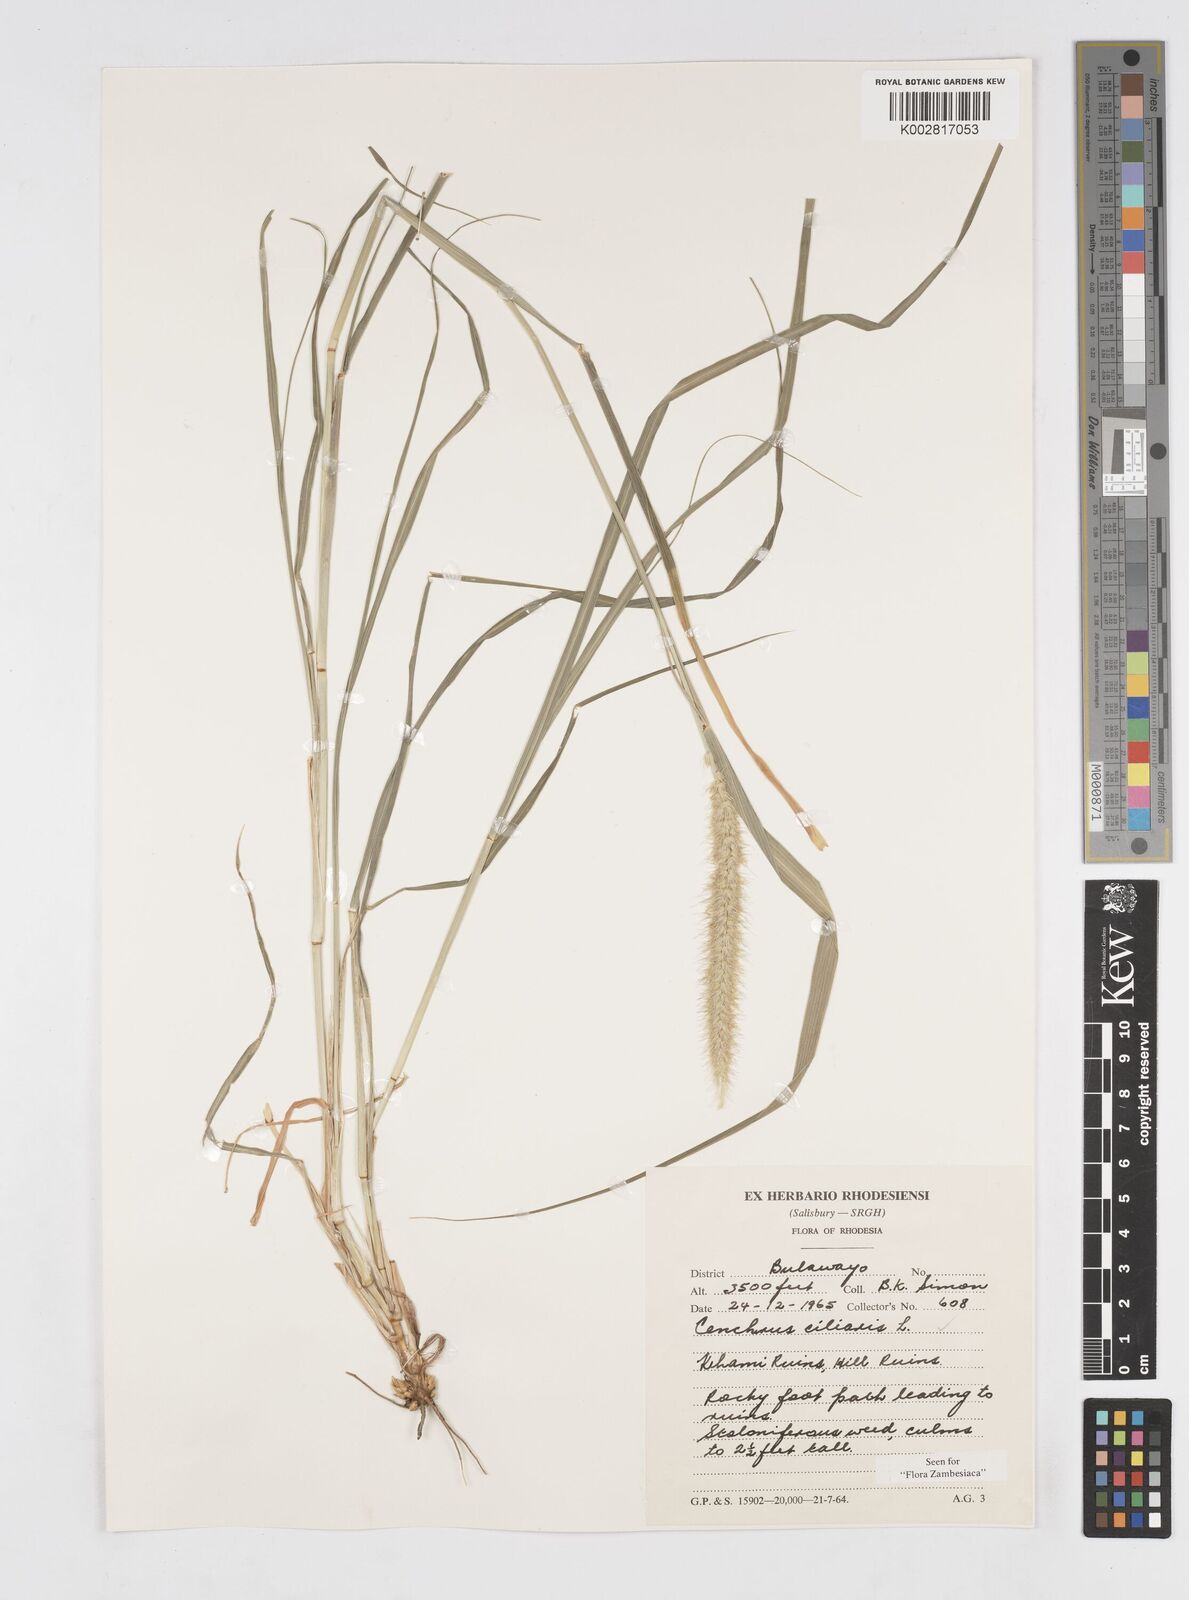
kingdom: Plantae
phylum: Tracheophyta
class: Liliopsida
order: Poales
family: Poaceae
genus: Cenchrus
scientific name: Cenchrus ciliaris
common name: Buffelgrass
